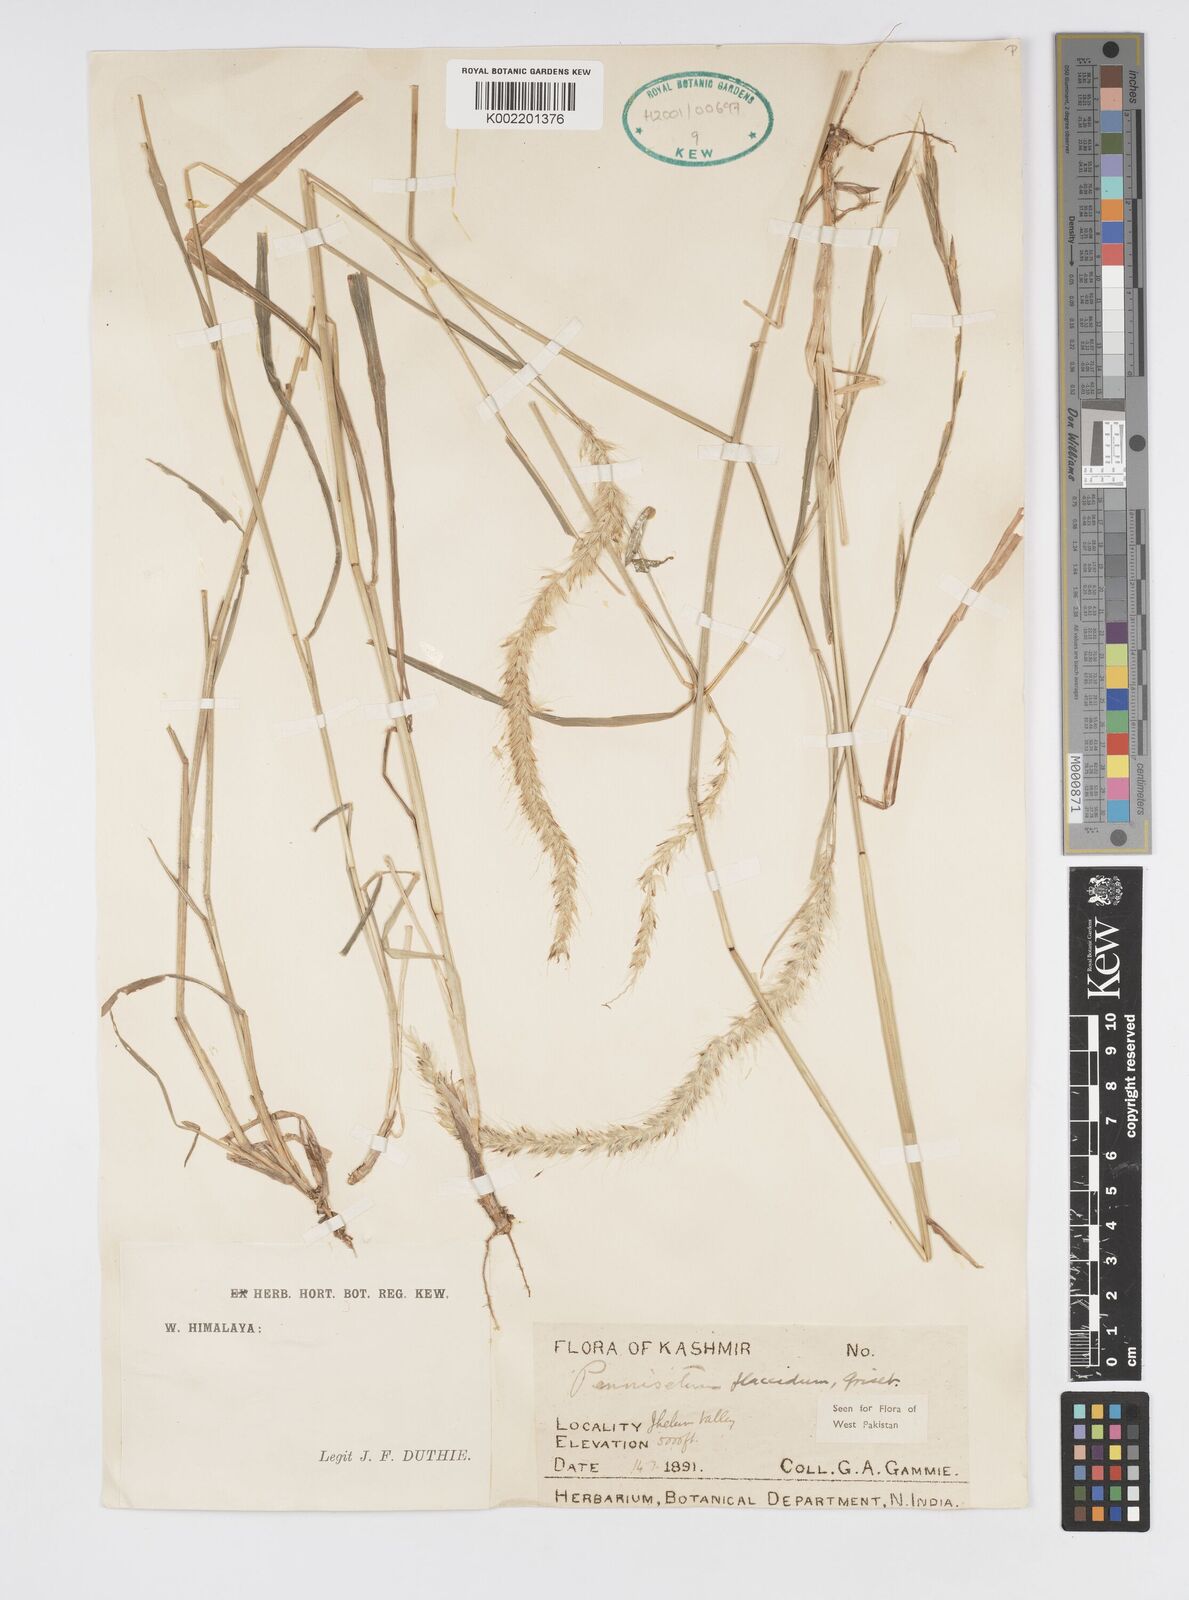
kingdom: Plantae
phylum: Tracheophyta
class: Liliopsida
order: Poales
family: Poaceae
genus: Cenchrus
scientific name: Cenchrus flaccidus
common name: Flaccid grass
